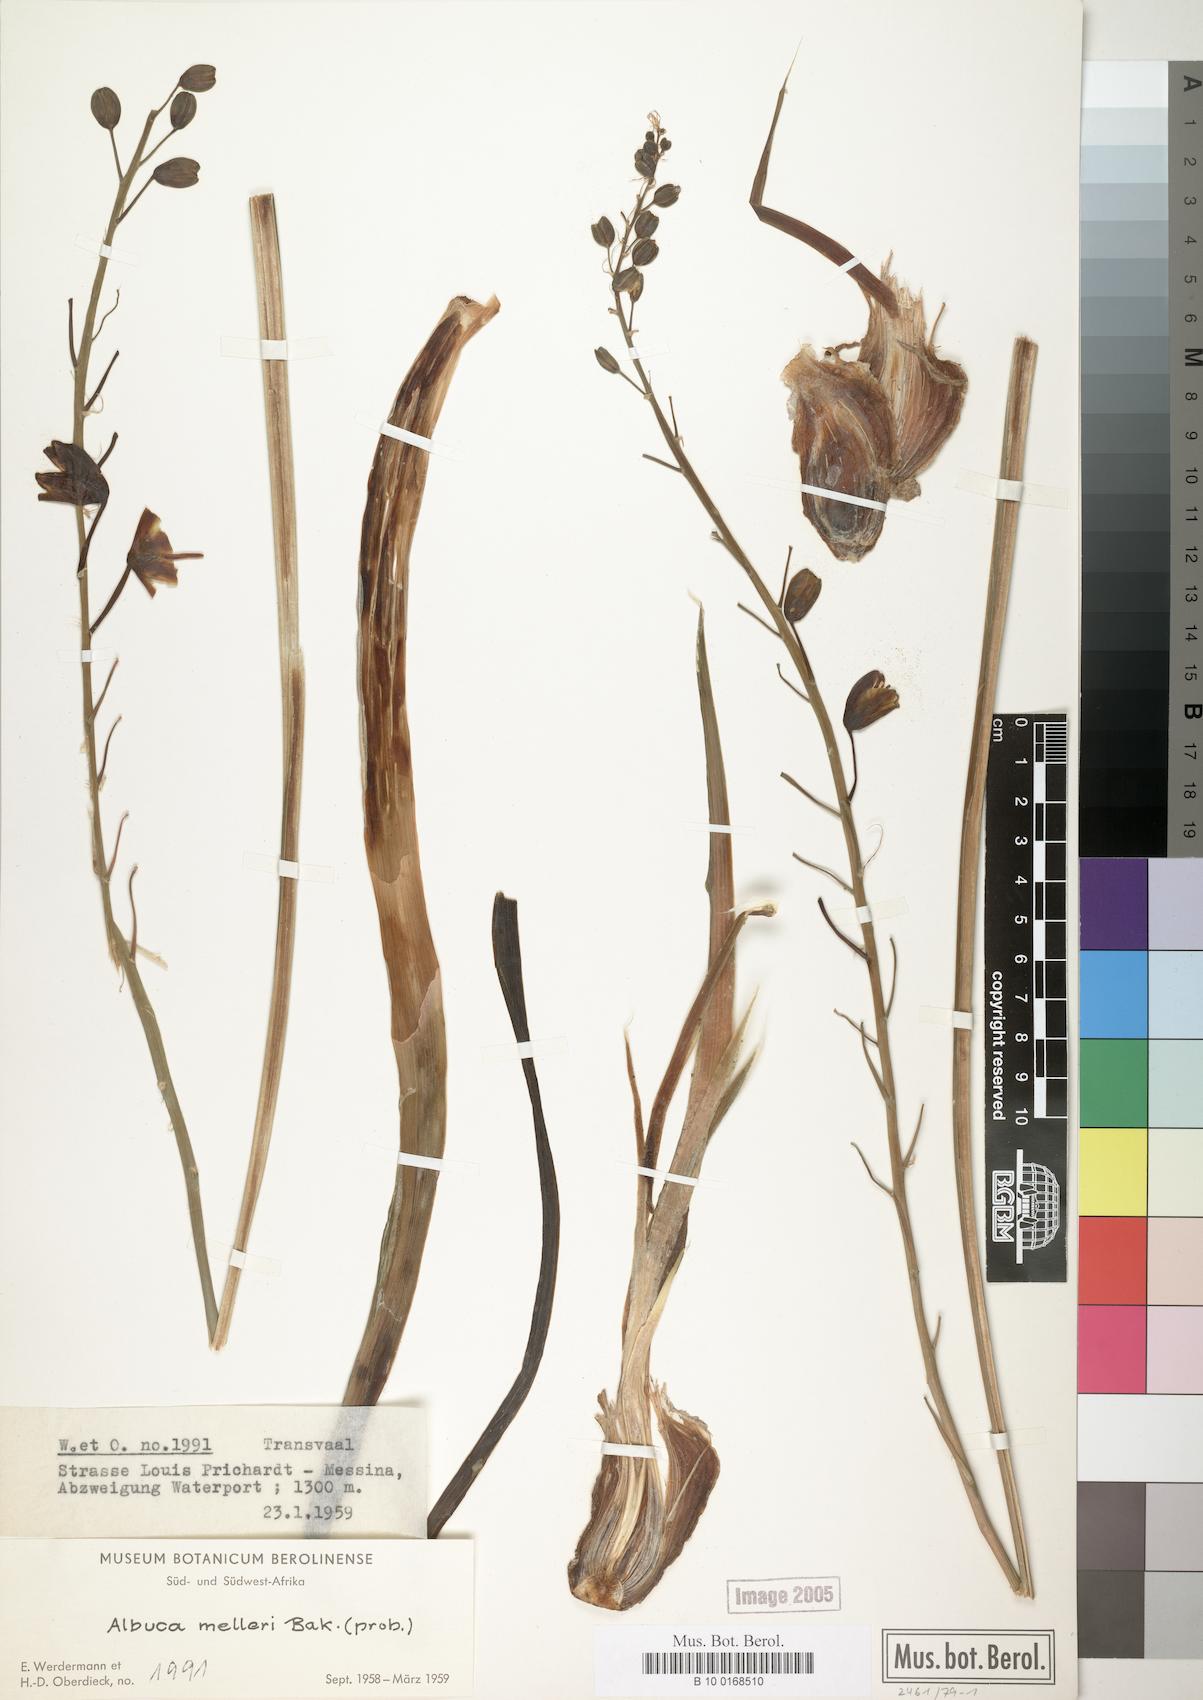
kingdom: Plantae
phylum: Tracheophyta
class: Liliopsida
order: Asparagales
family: Asparagaceae
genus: Albuca
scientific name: Albuca abyssinica
